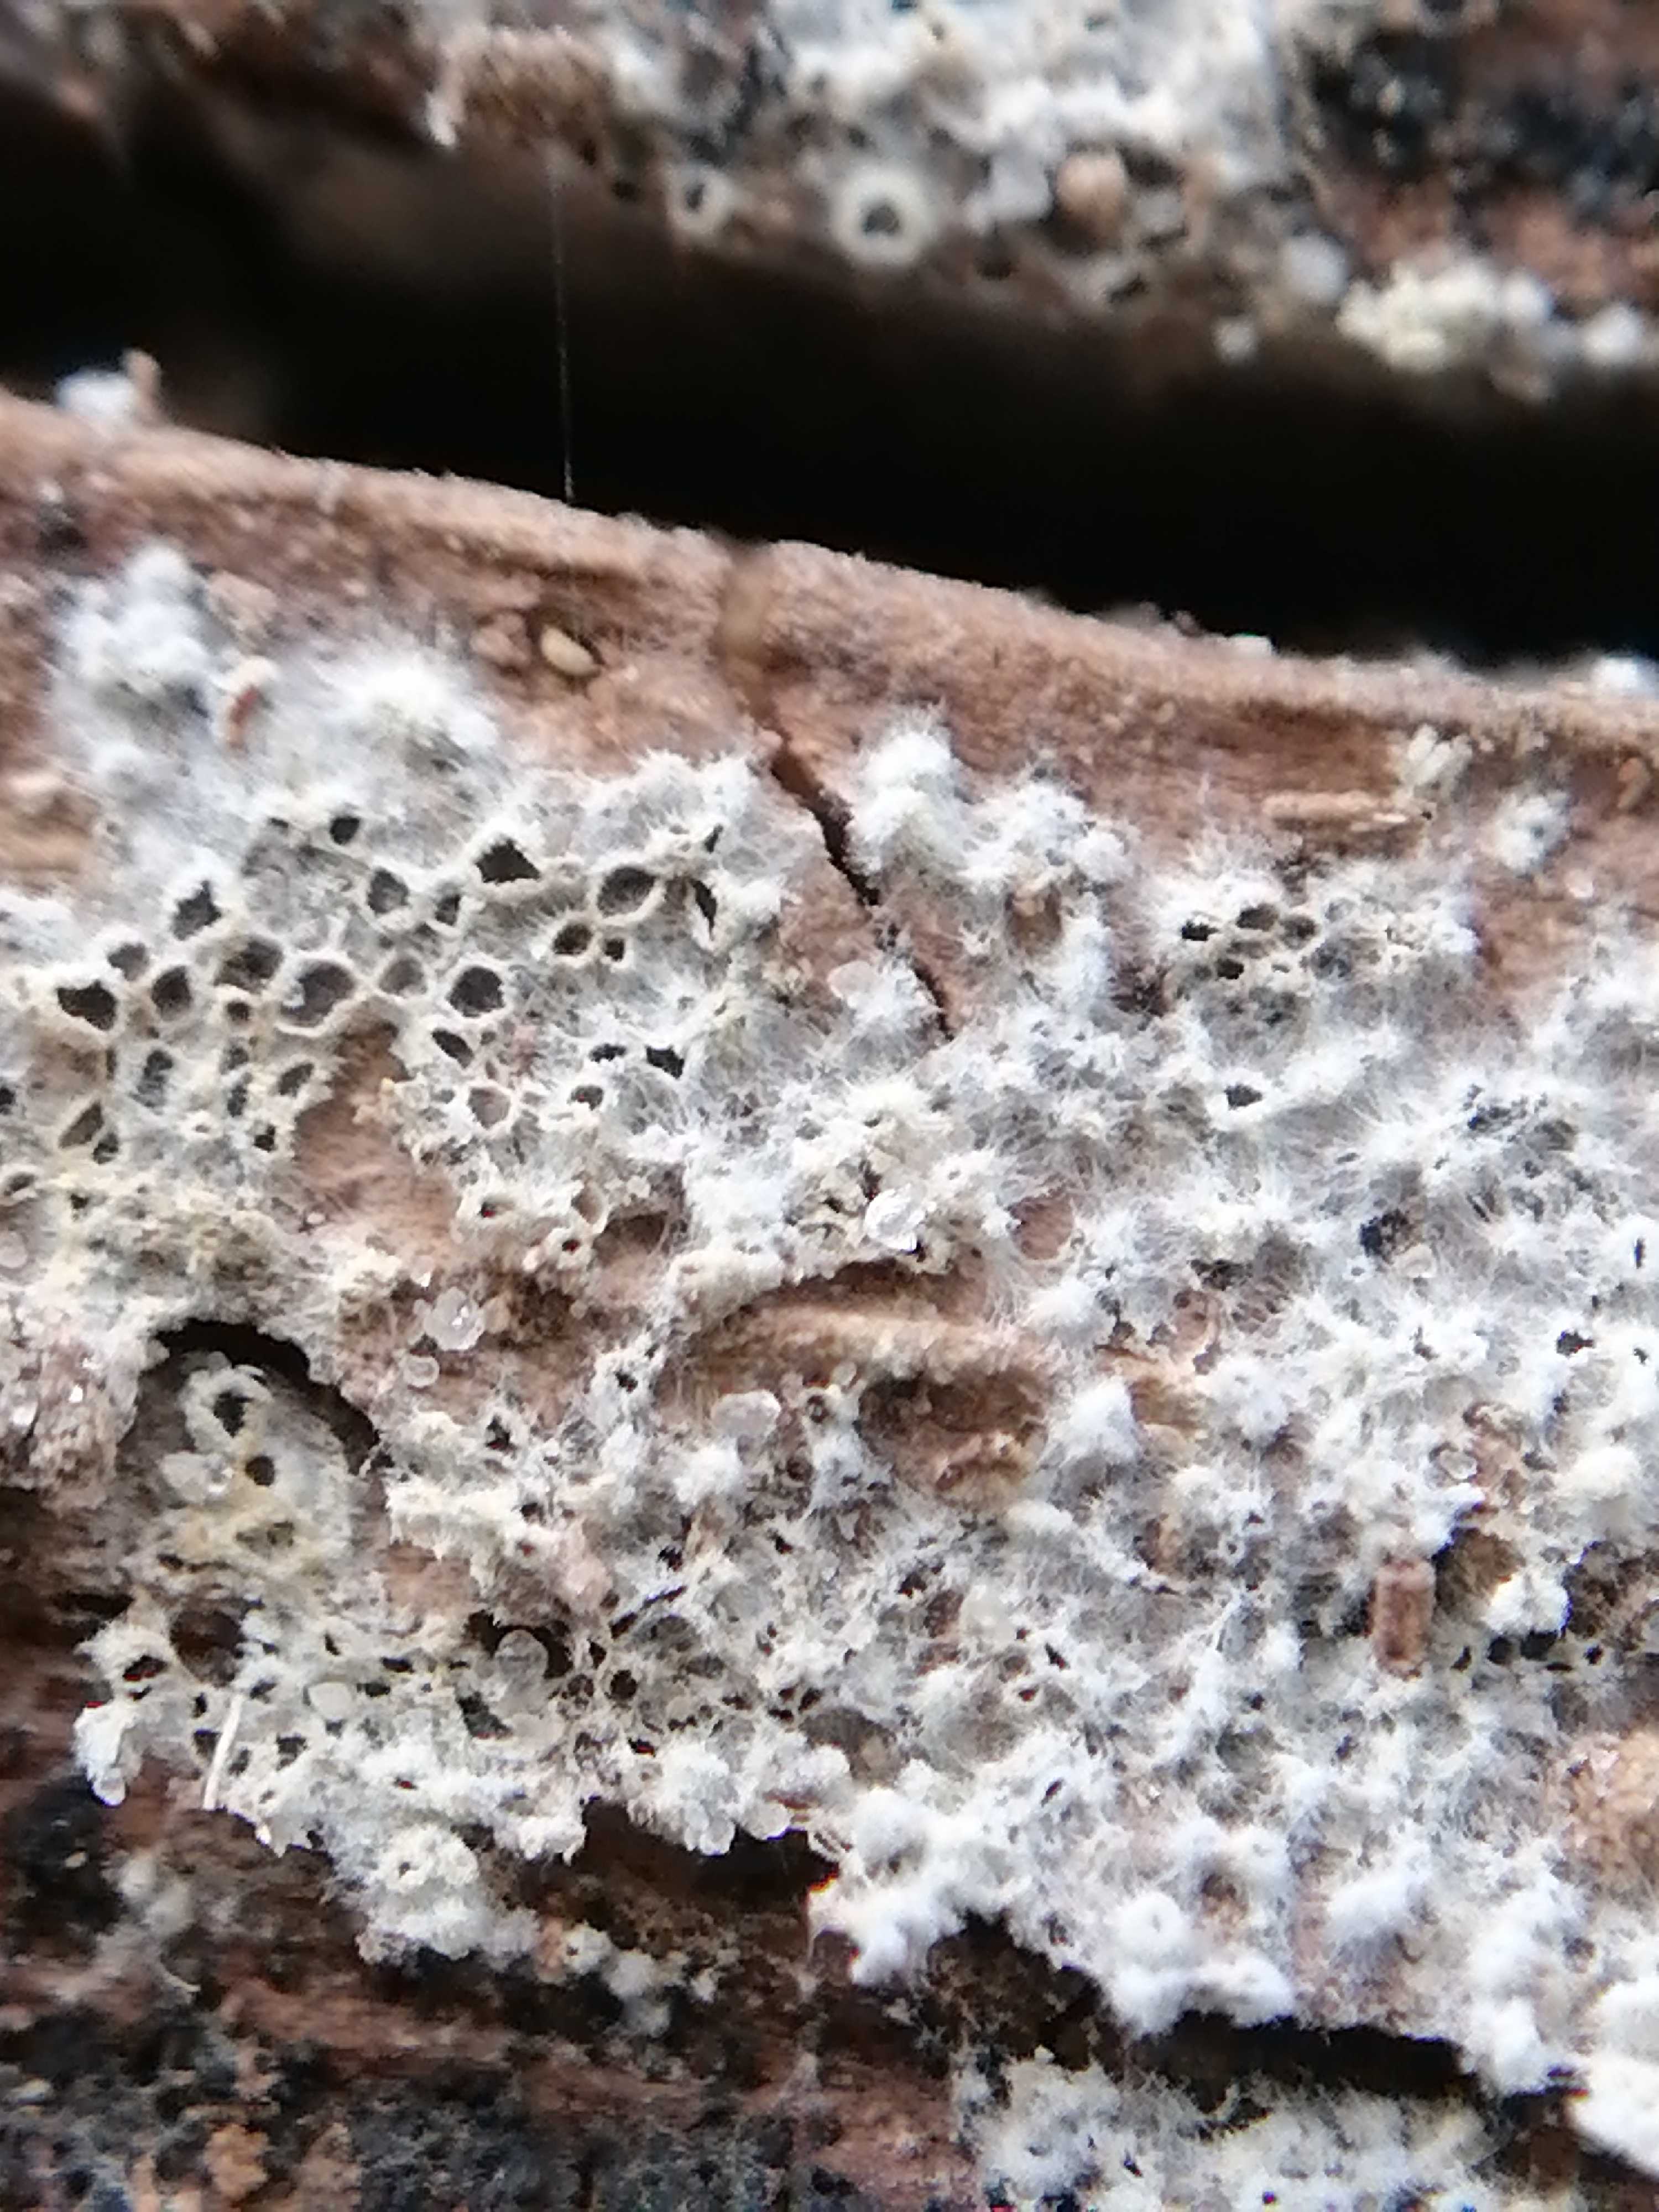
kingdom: Fungi
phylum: Ascomycota
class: Leotiomycetes
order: Helotiales
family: Arachnopezizaceae
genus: Eriopezia
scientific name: Eriopezia caesia
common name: ege-spindskive
